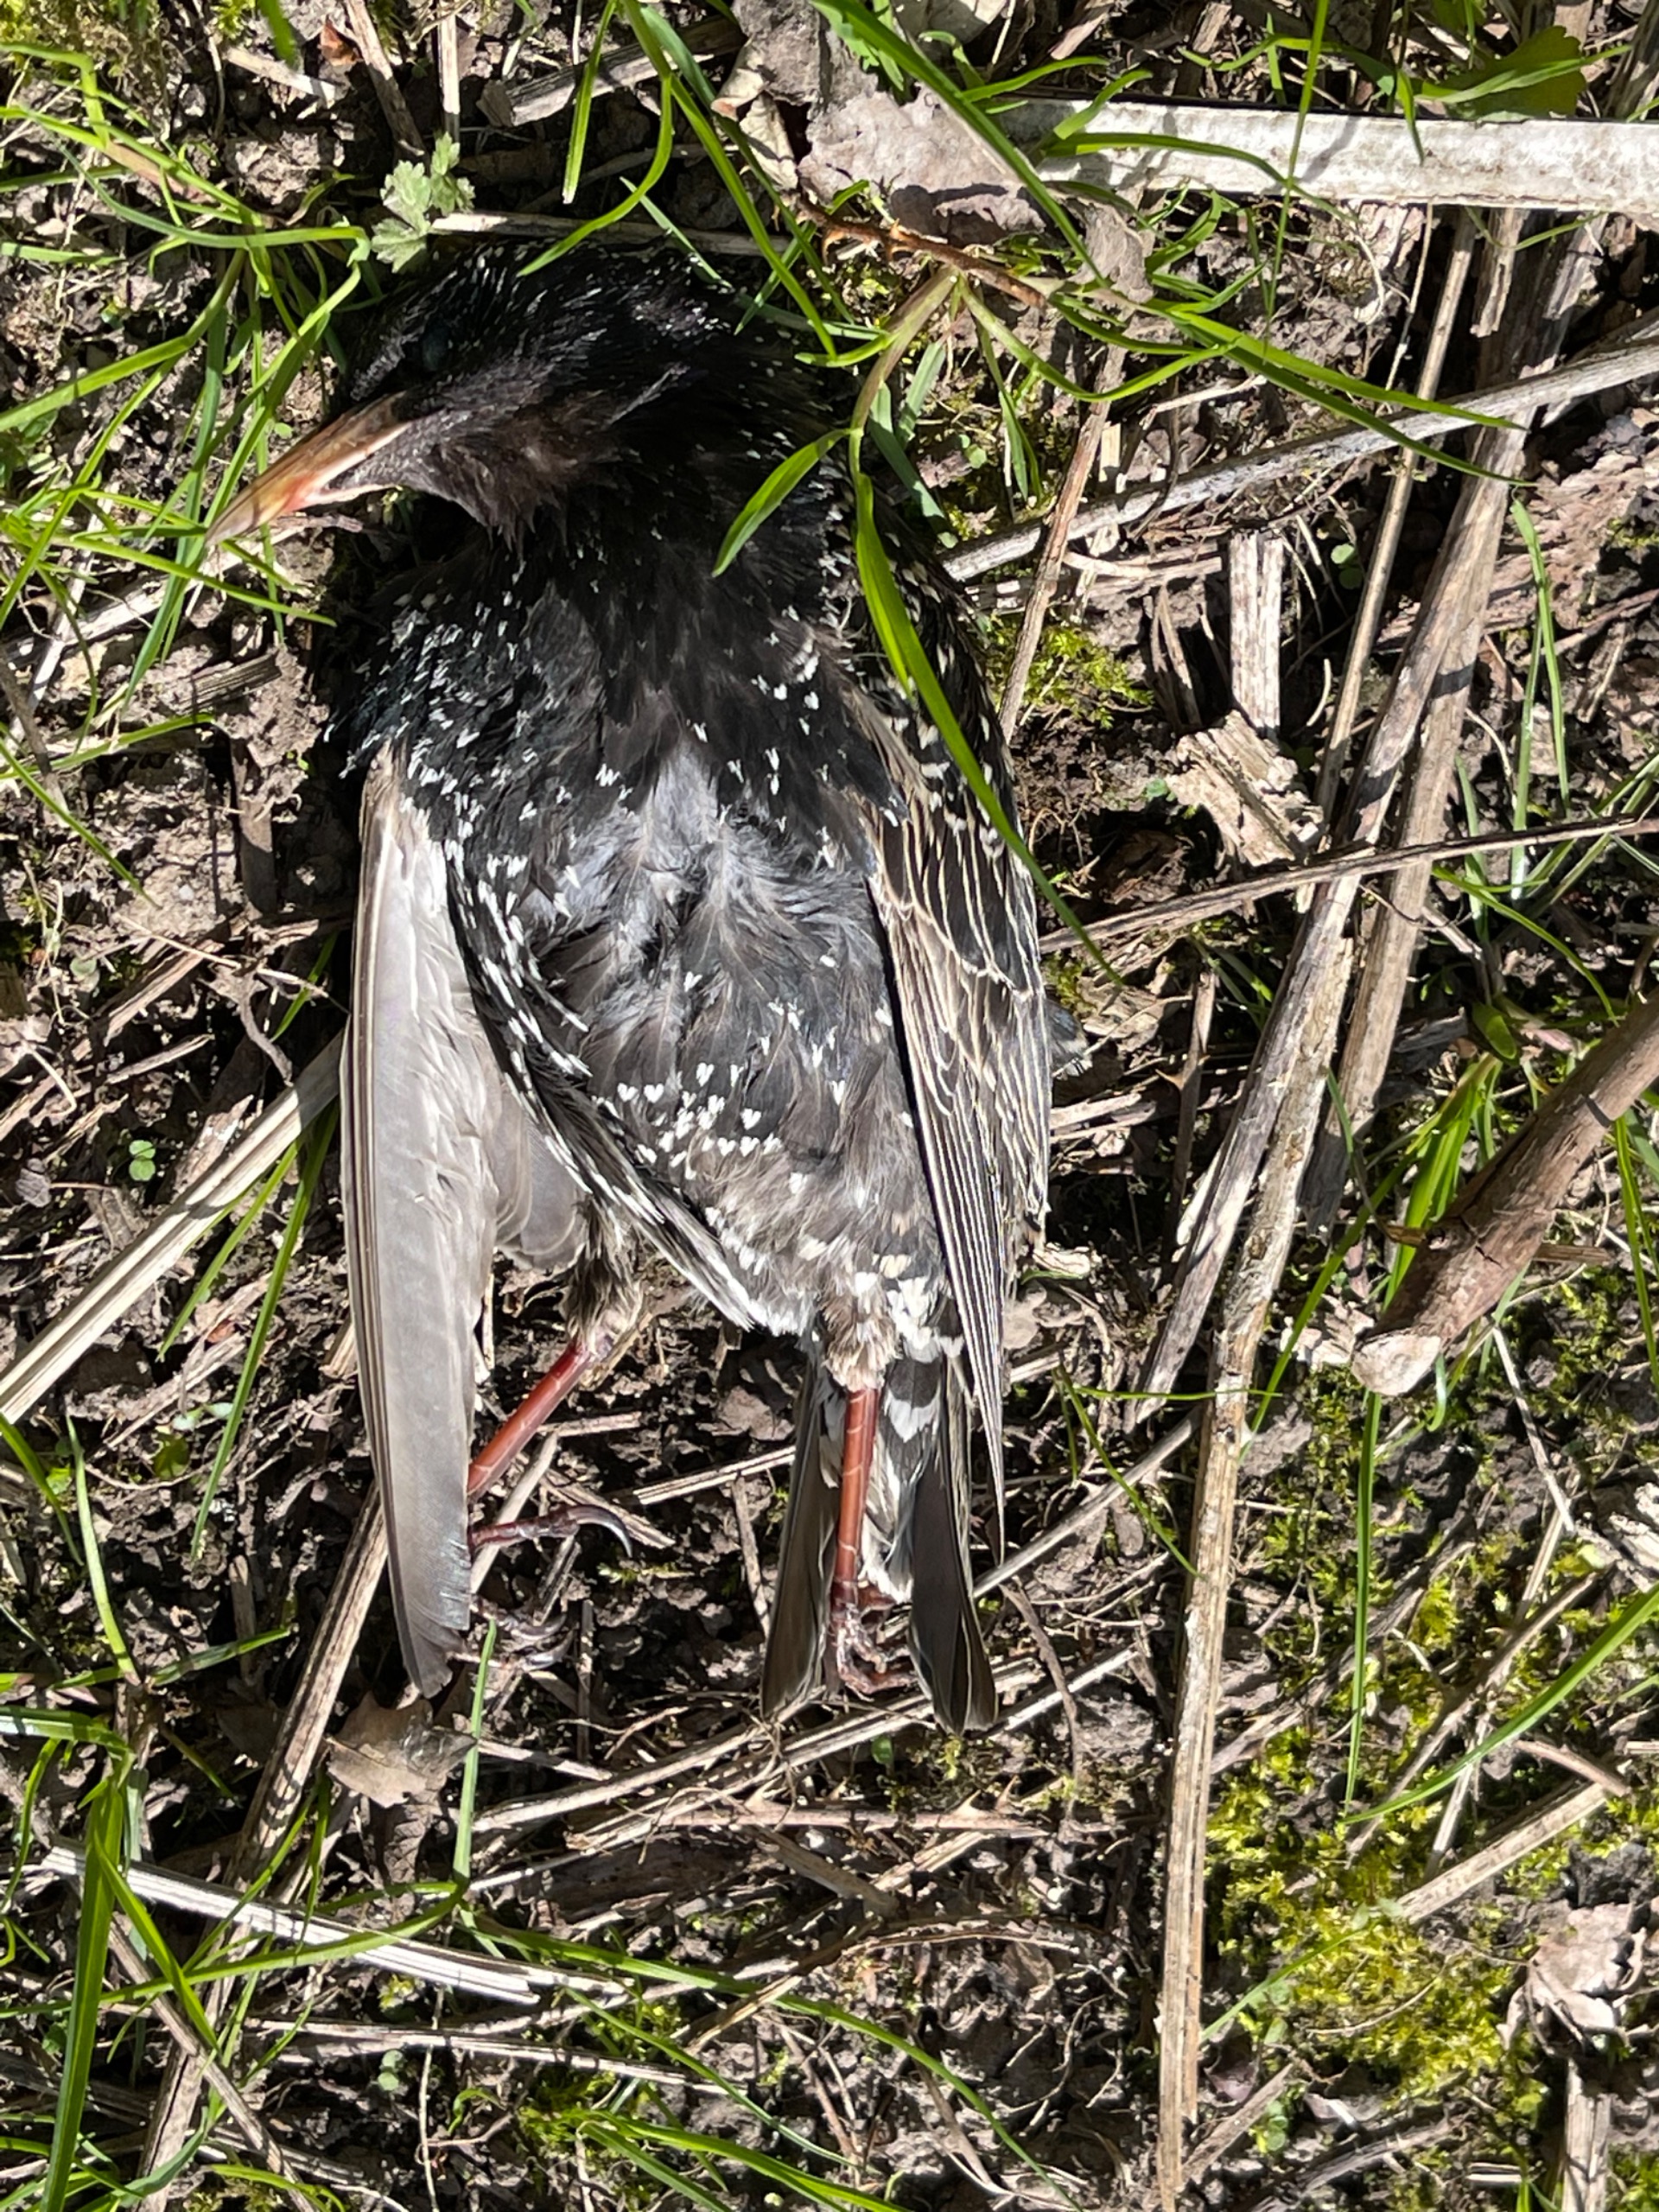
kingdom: Animalia
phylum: Chordata
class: Aves
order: Passeriformes
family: Sturnidae
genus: Sturnus
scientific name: Sturnus vulgaris
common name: Stær
